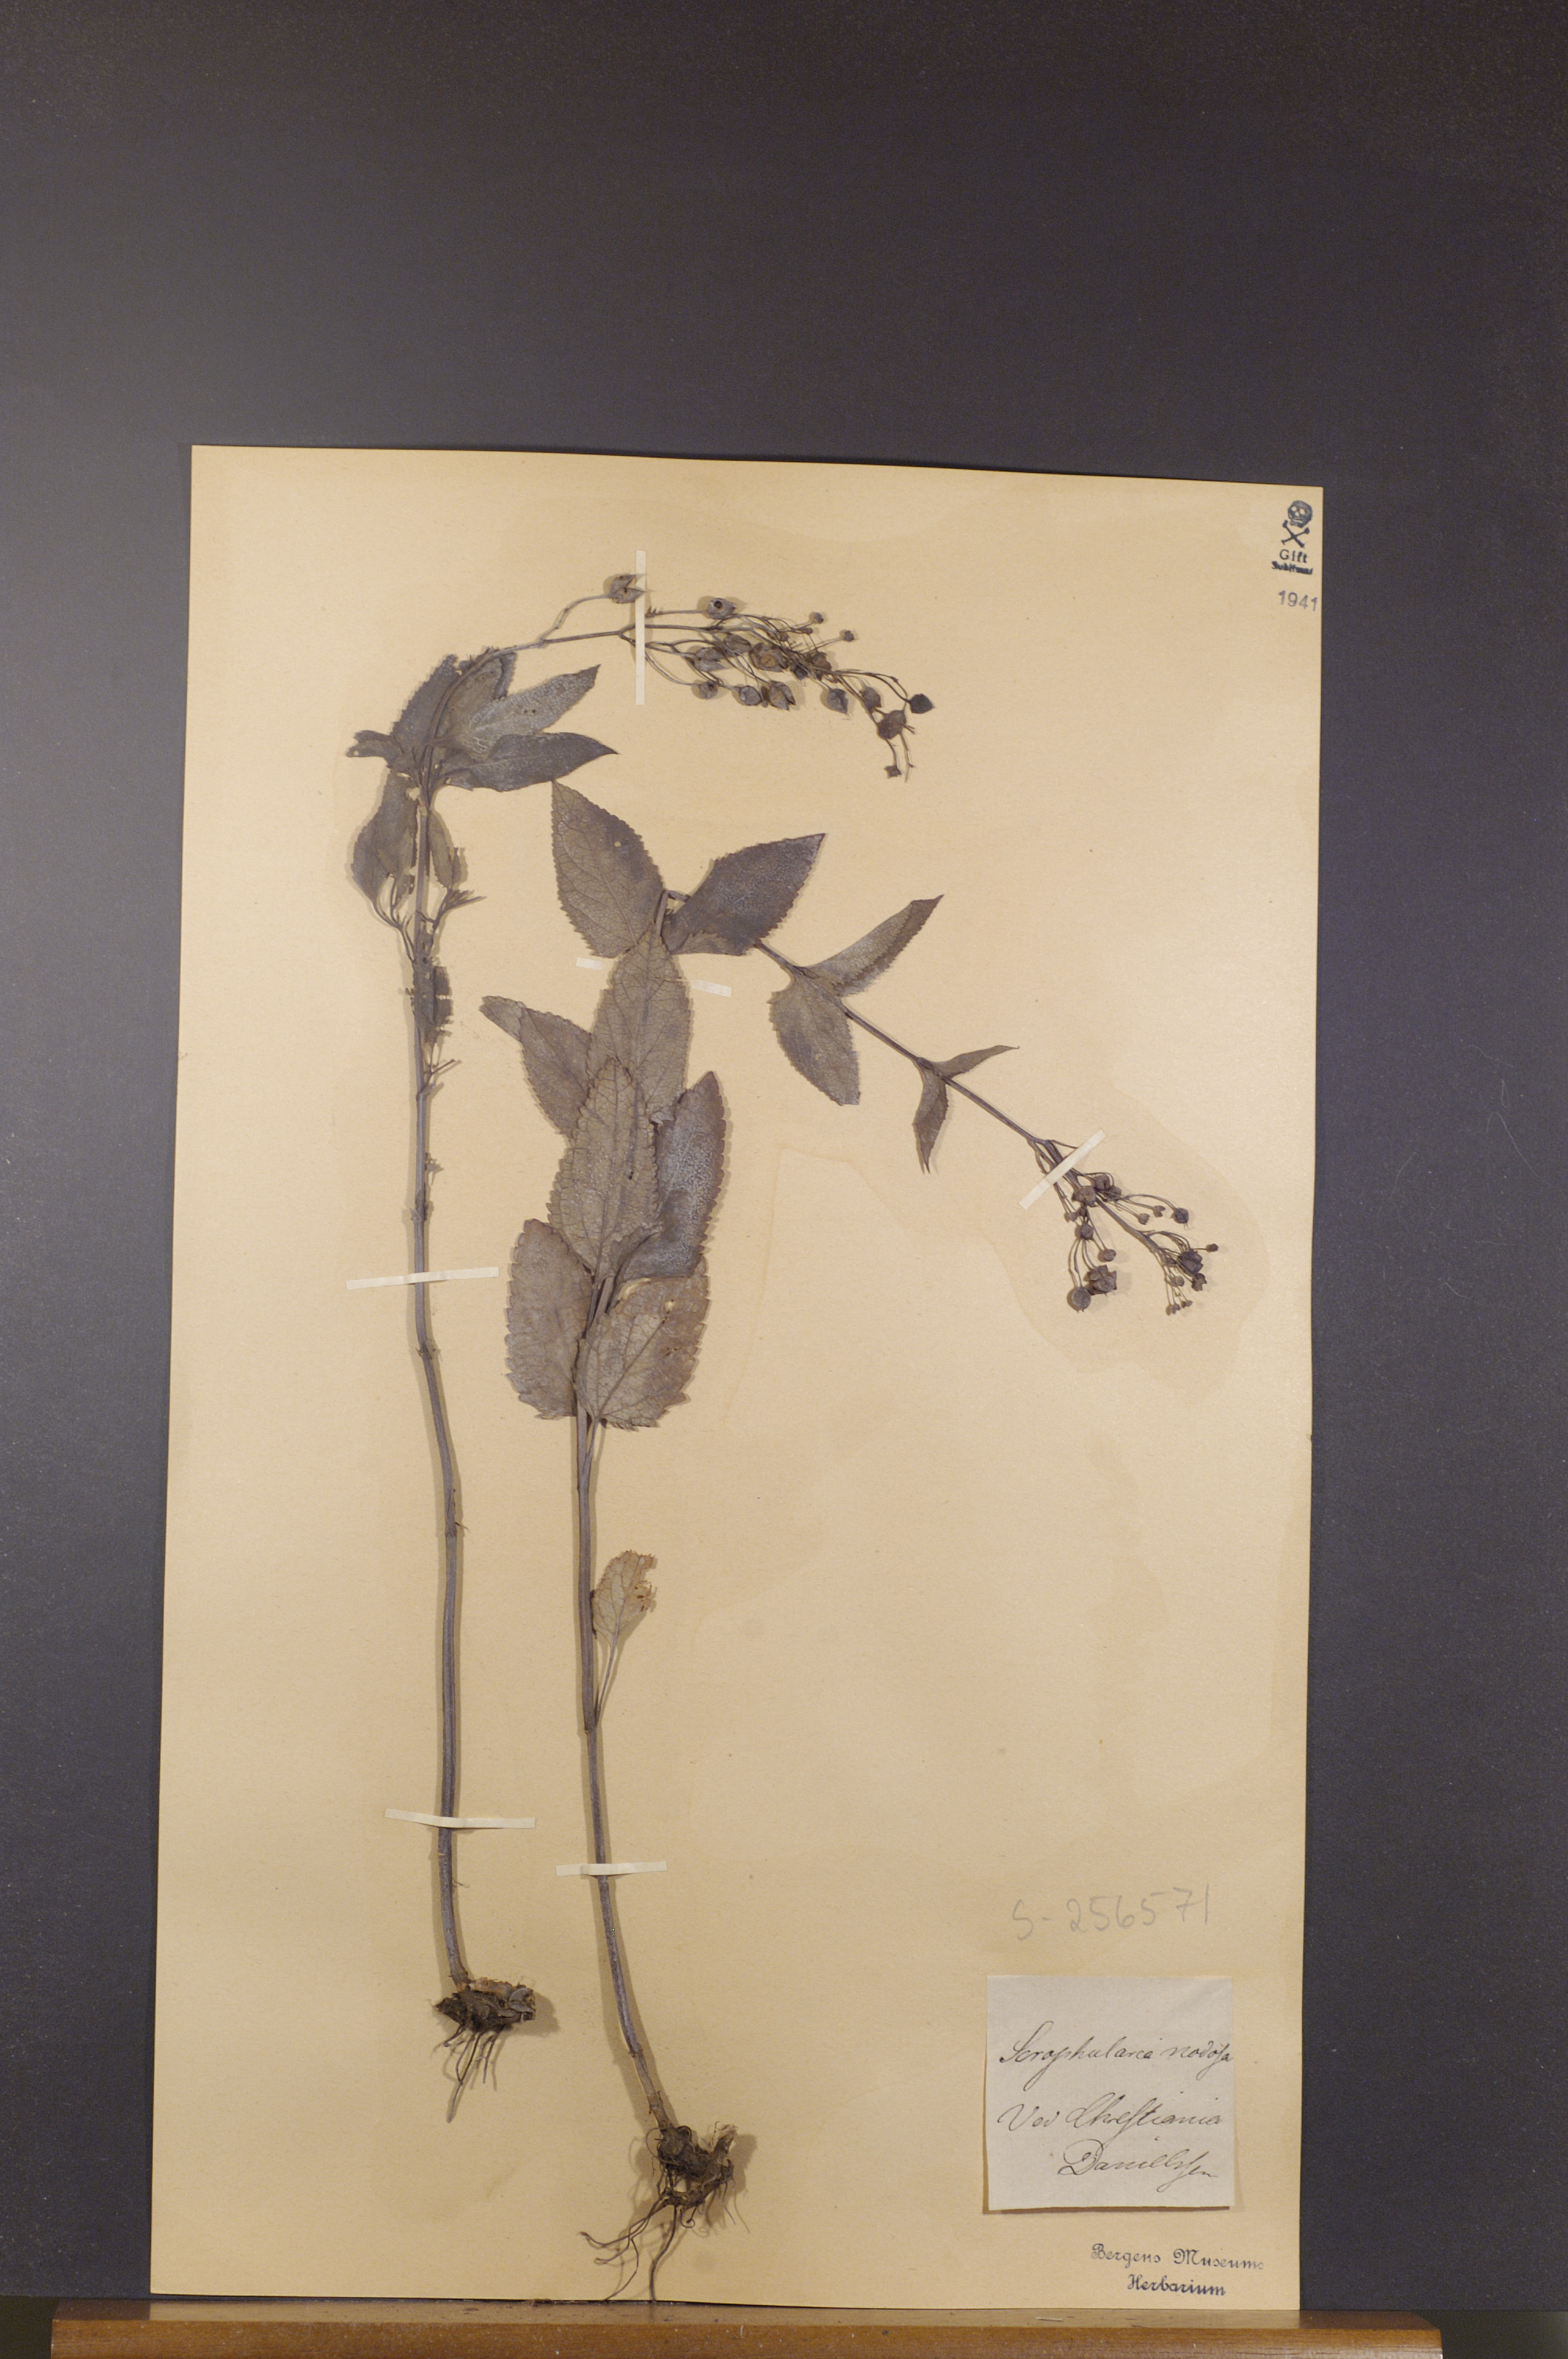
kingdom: Plantae
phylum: Tracheophyta
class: Magnoliopsida
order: Lamiales
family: Scrophulariaceae
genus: Scrophularia
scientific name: Scrophularia nodosa
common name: Common figwort
